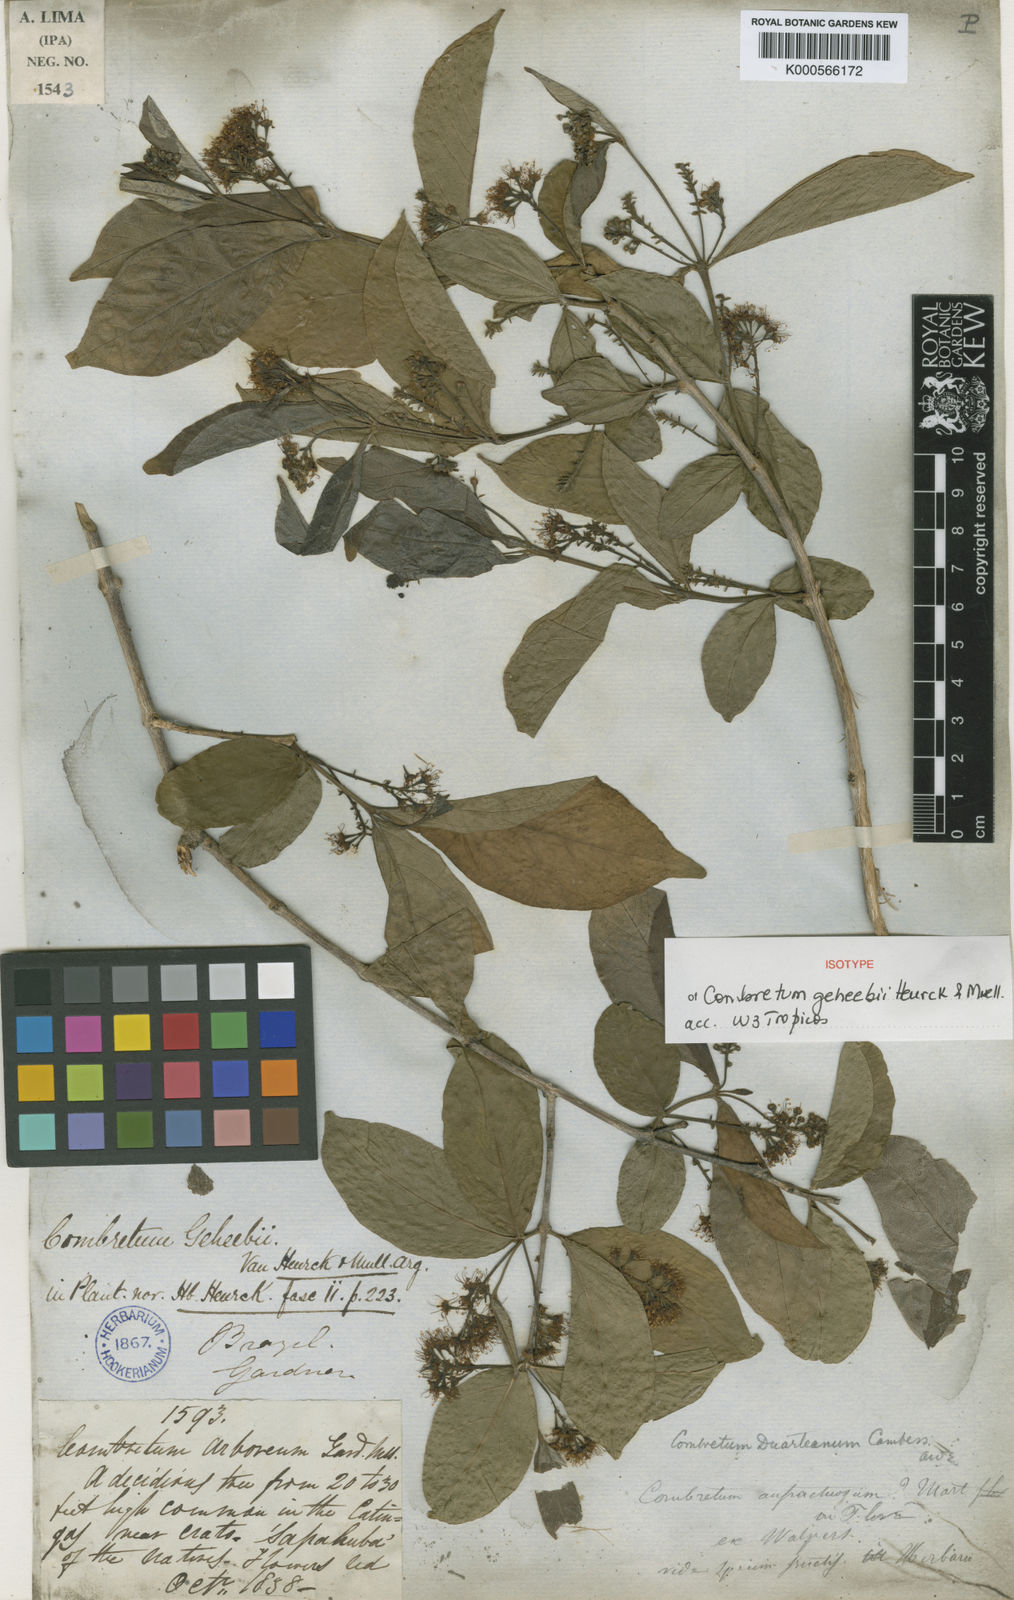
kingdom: Plantae
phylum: Tracheophyta
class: Magnoliopsida
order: Myrtales
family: Combretaceae
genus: Combretum
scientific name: Combretum duarteanum
